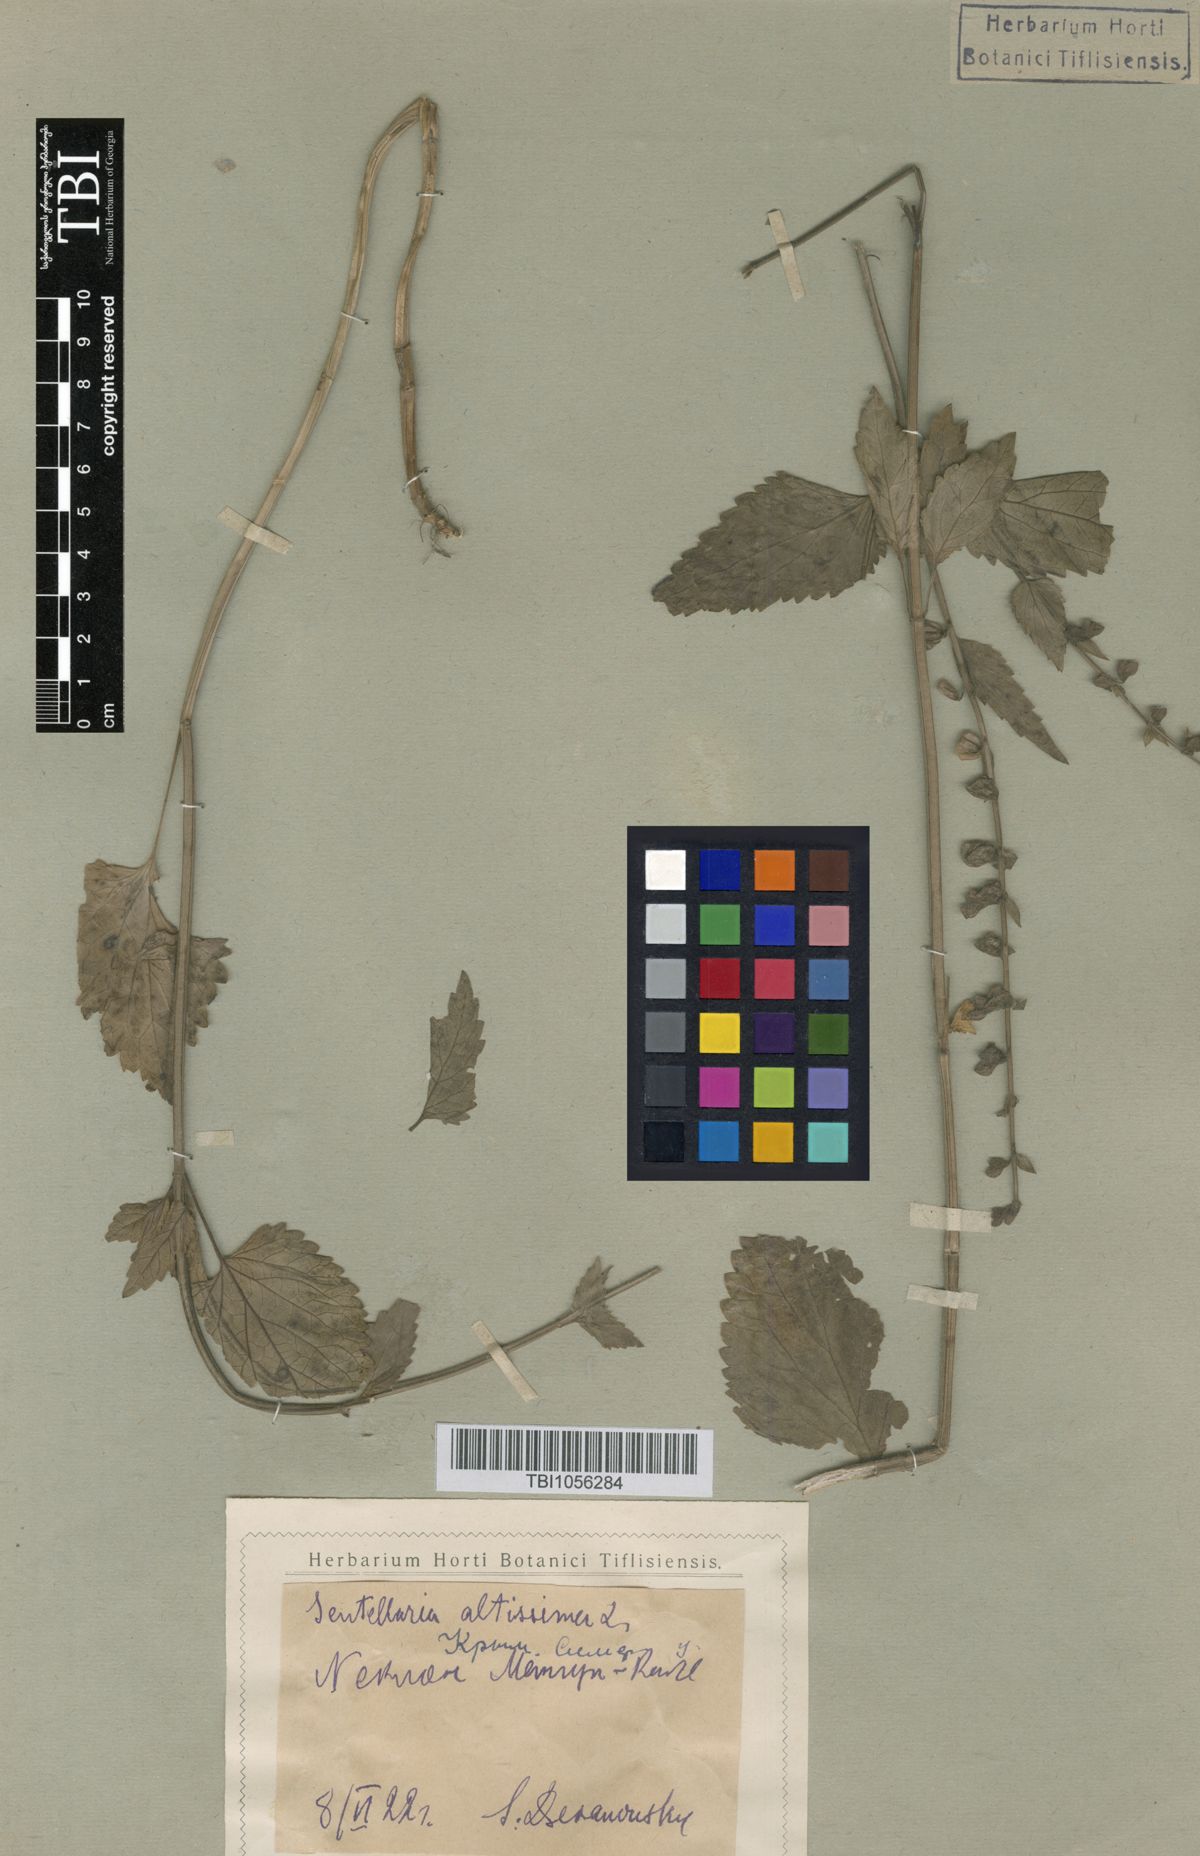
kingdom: Plantae
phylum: Tracheophyta
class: Magnoliopsida
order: Lamiales
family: Lamiaceae
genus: Scutellaria
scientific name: Scutellaria altissima
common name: Somerset skullcap
